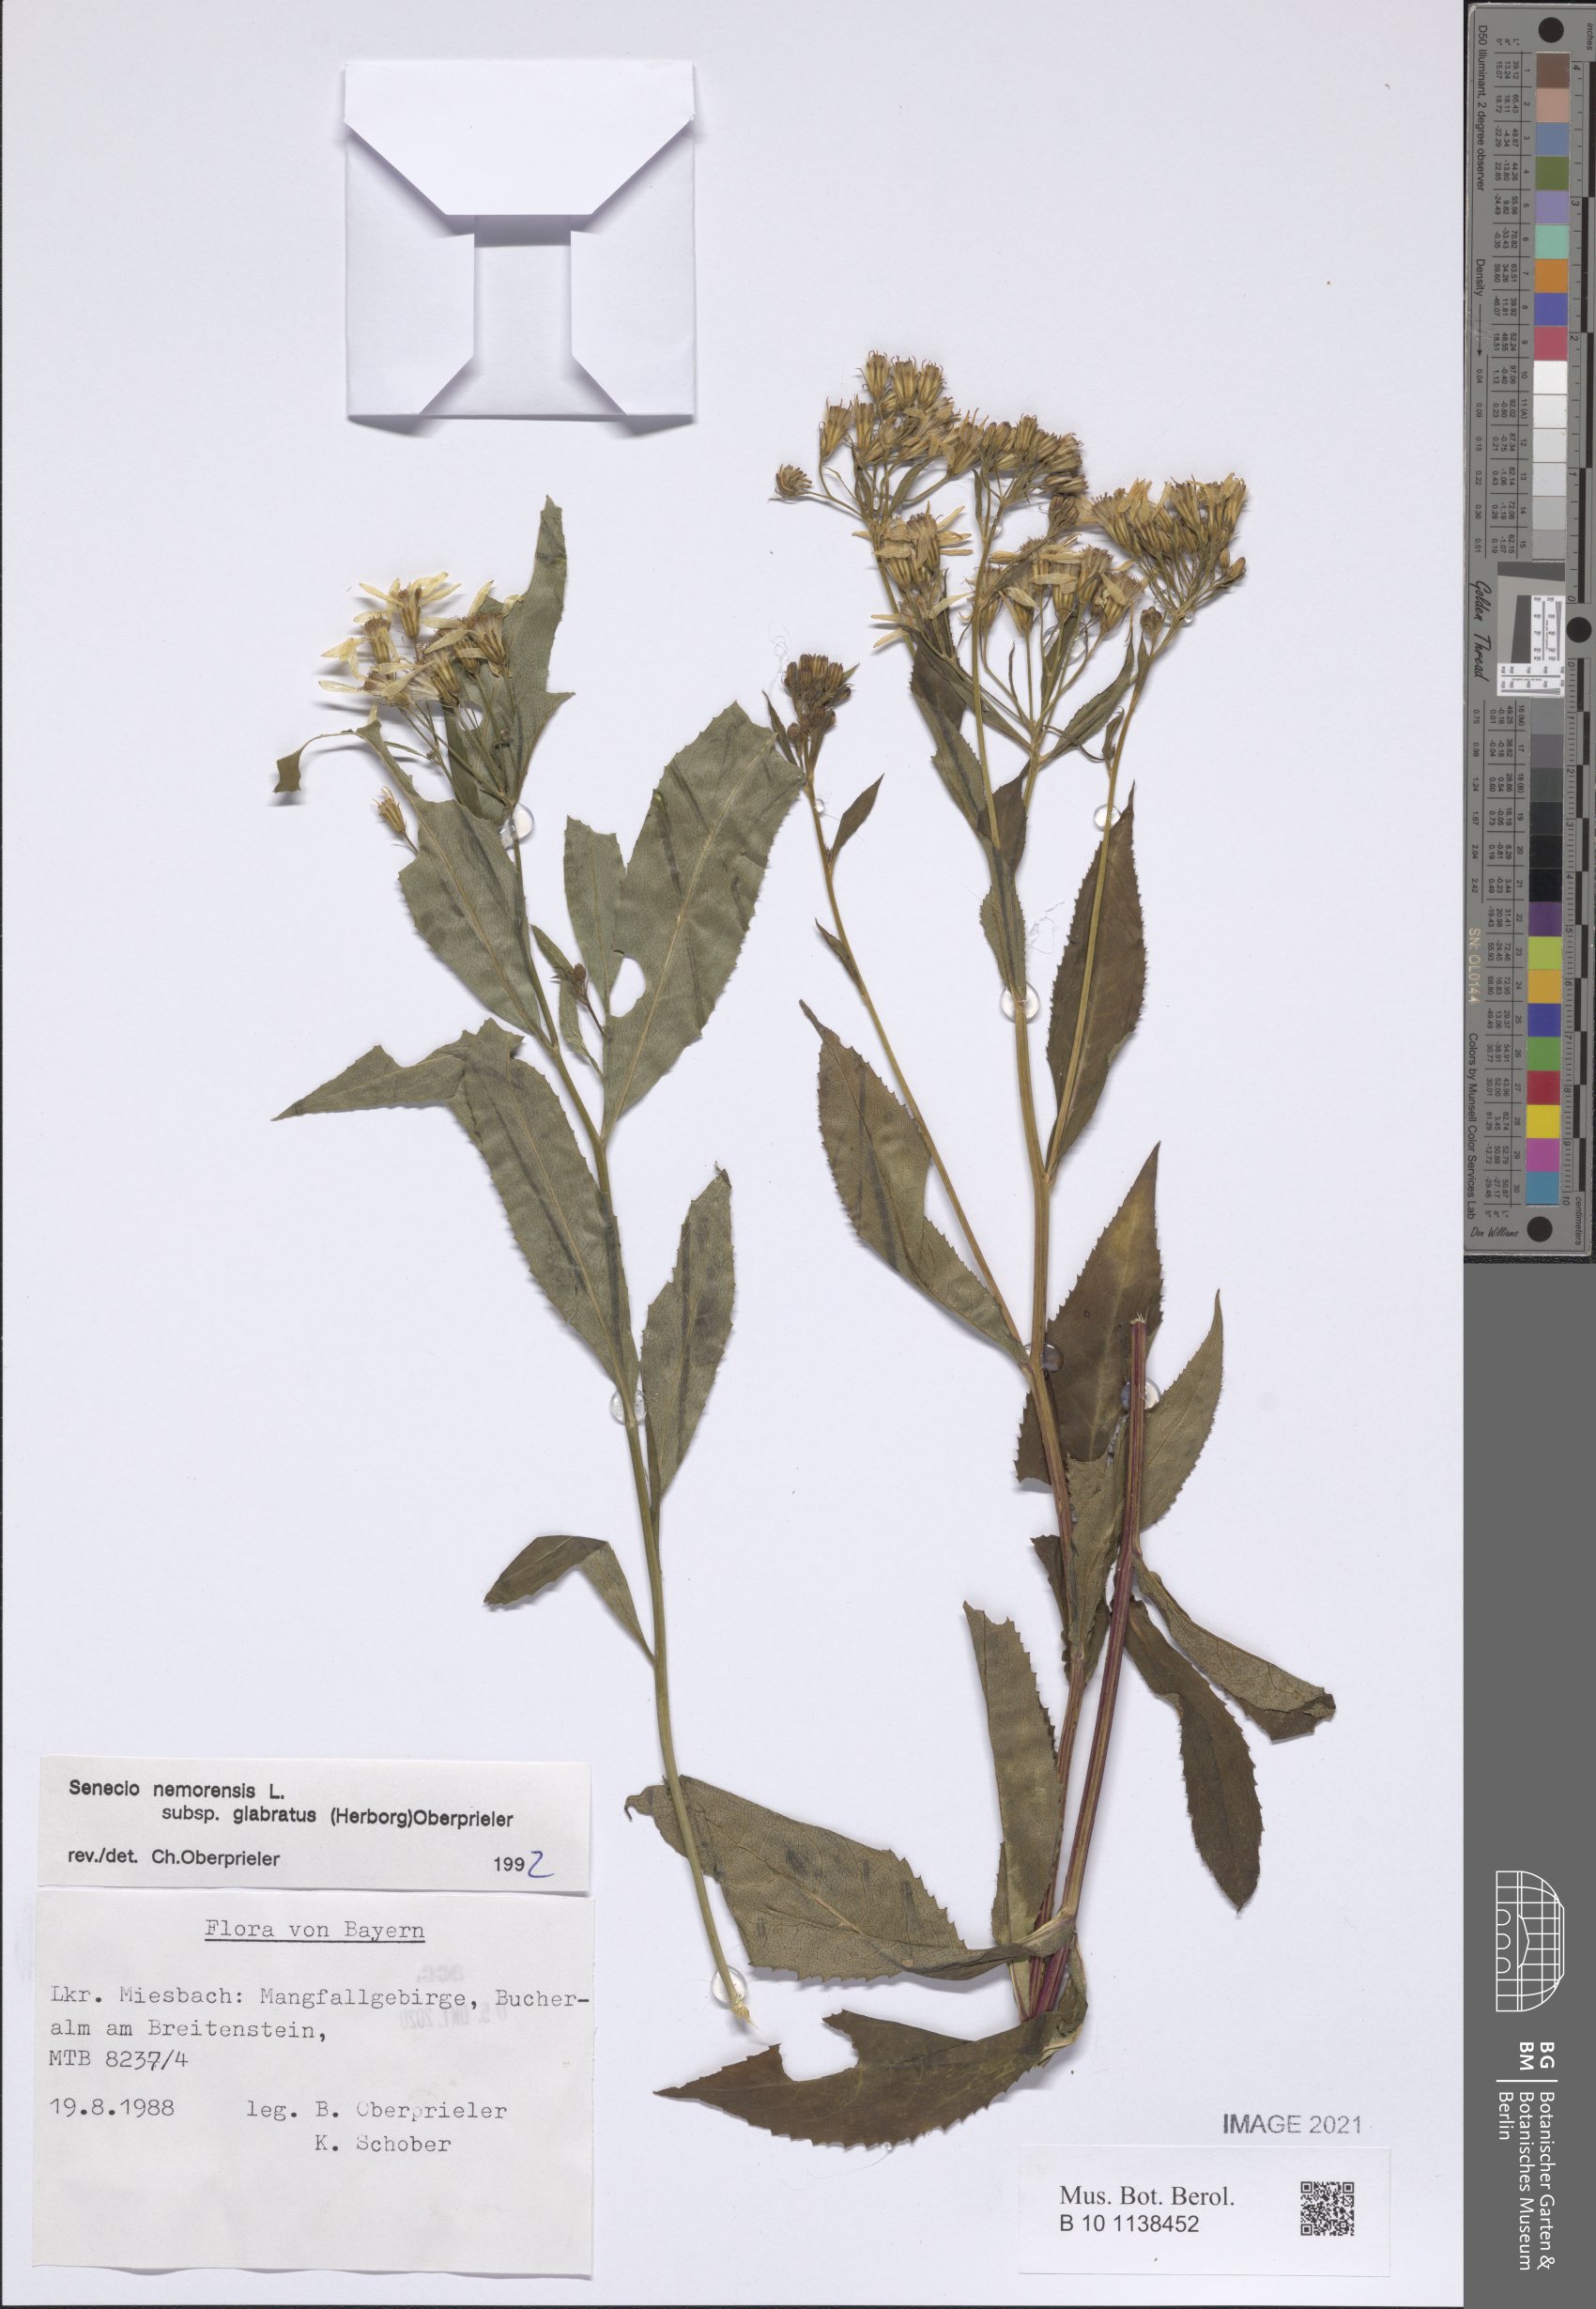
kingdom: Plantae
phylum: Tracheophyta
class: Magnoliopsida
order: Asterales
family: Asteraceae
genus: Senecio
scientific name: Senecio germanicus
